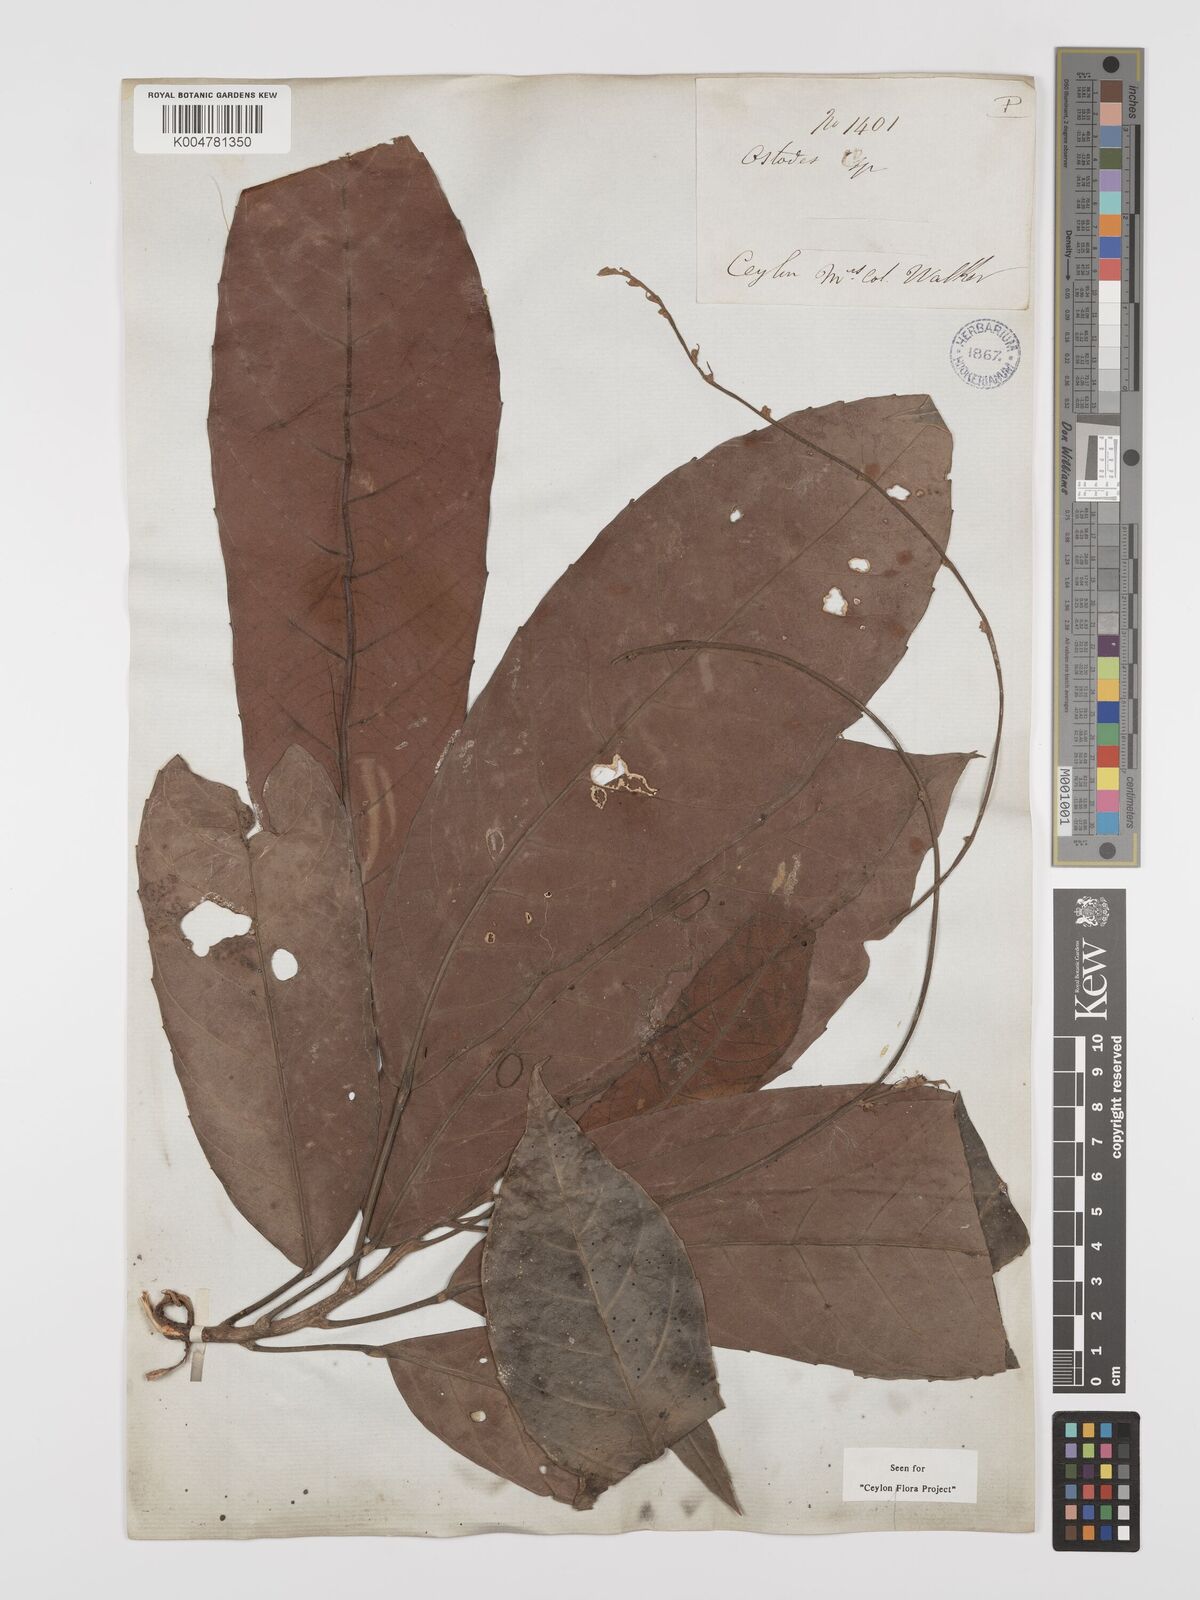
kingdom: Plantae
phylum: Tracheophyta
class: Magnoliopsida
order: Malpighiales
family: Euphorbiaceae
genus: Paracroton
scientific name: Paracroton zeylanicus
